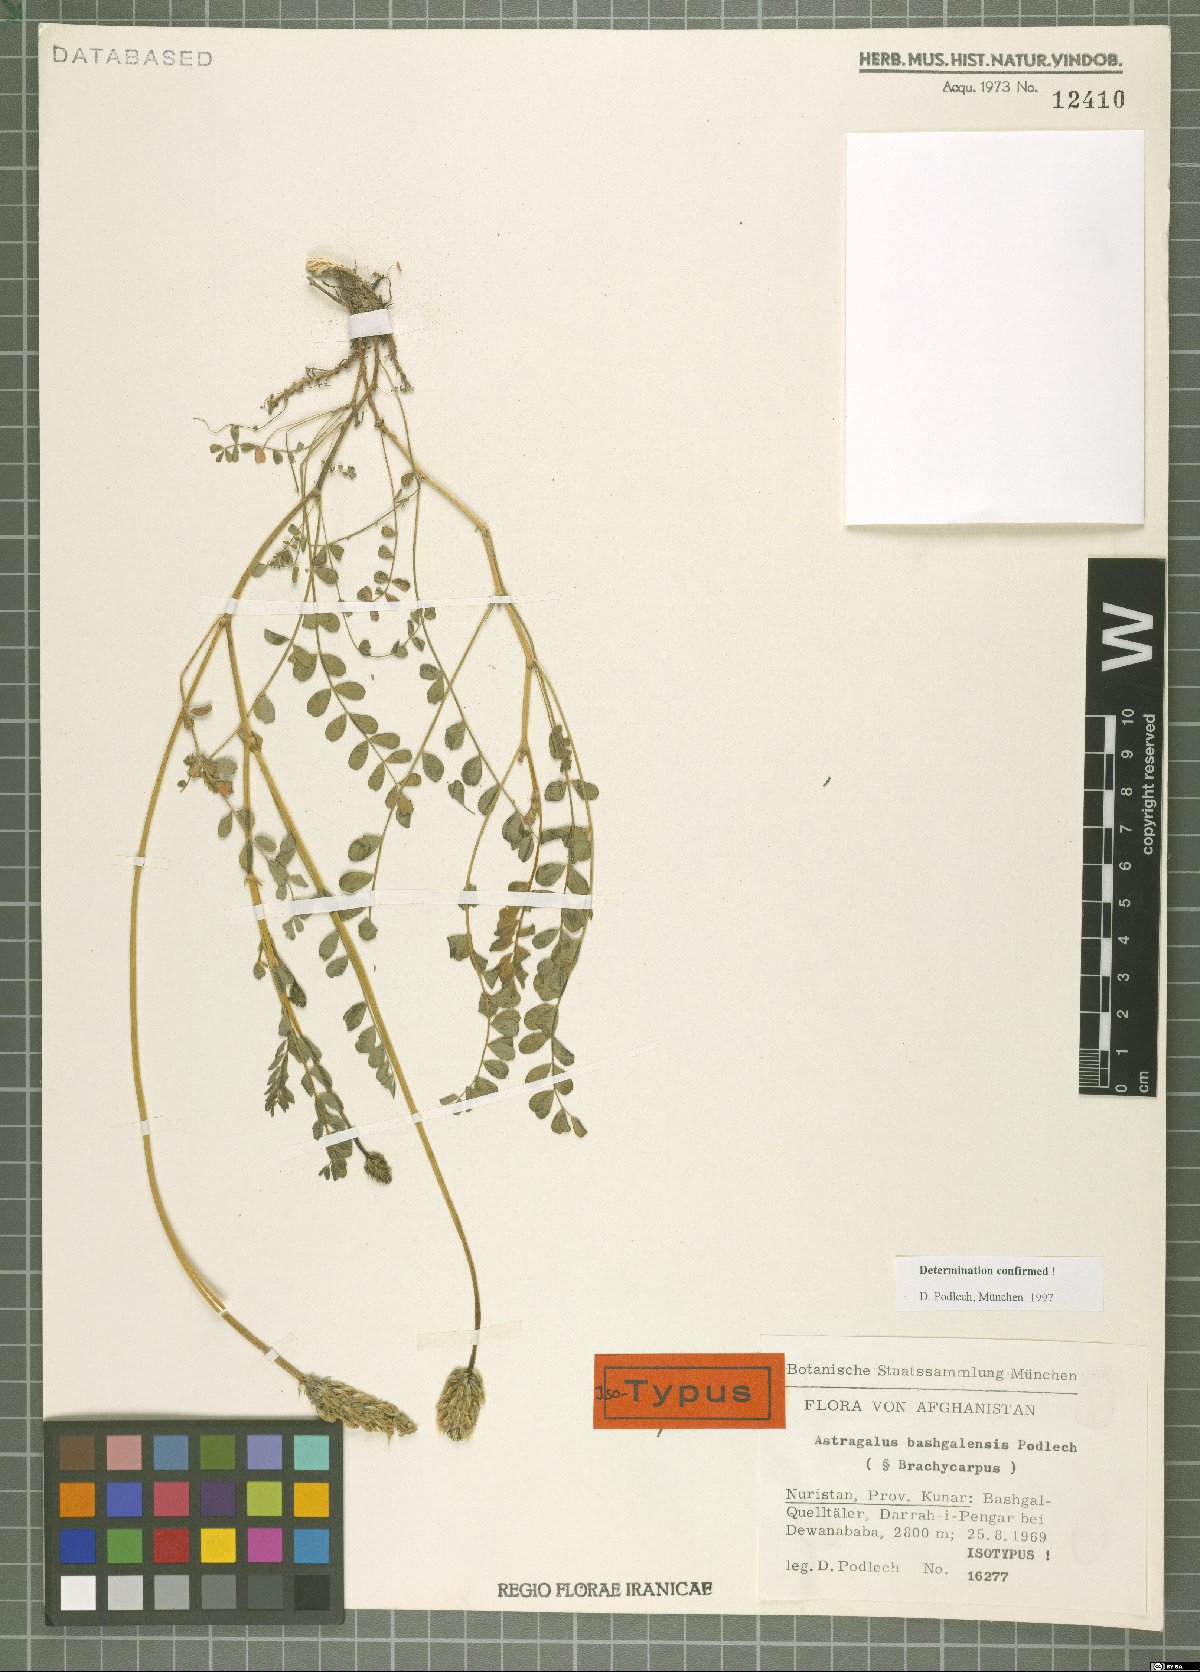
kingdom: Plantae
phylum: Tracheophyta
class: Magnoliopsida
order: Fabales
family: Fabaceae
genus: Astragalus
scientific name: Astragalus bashgalensis
